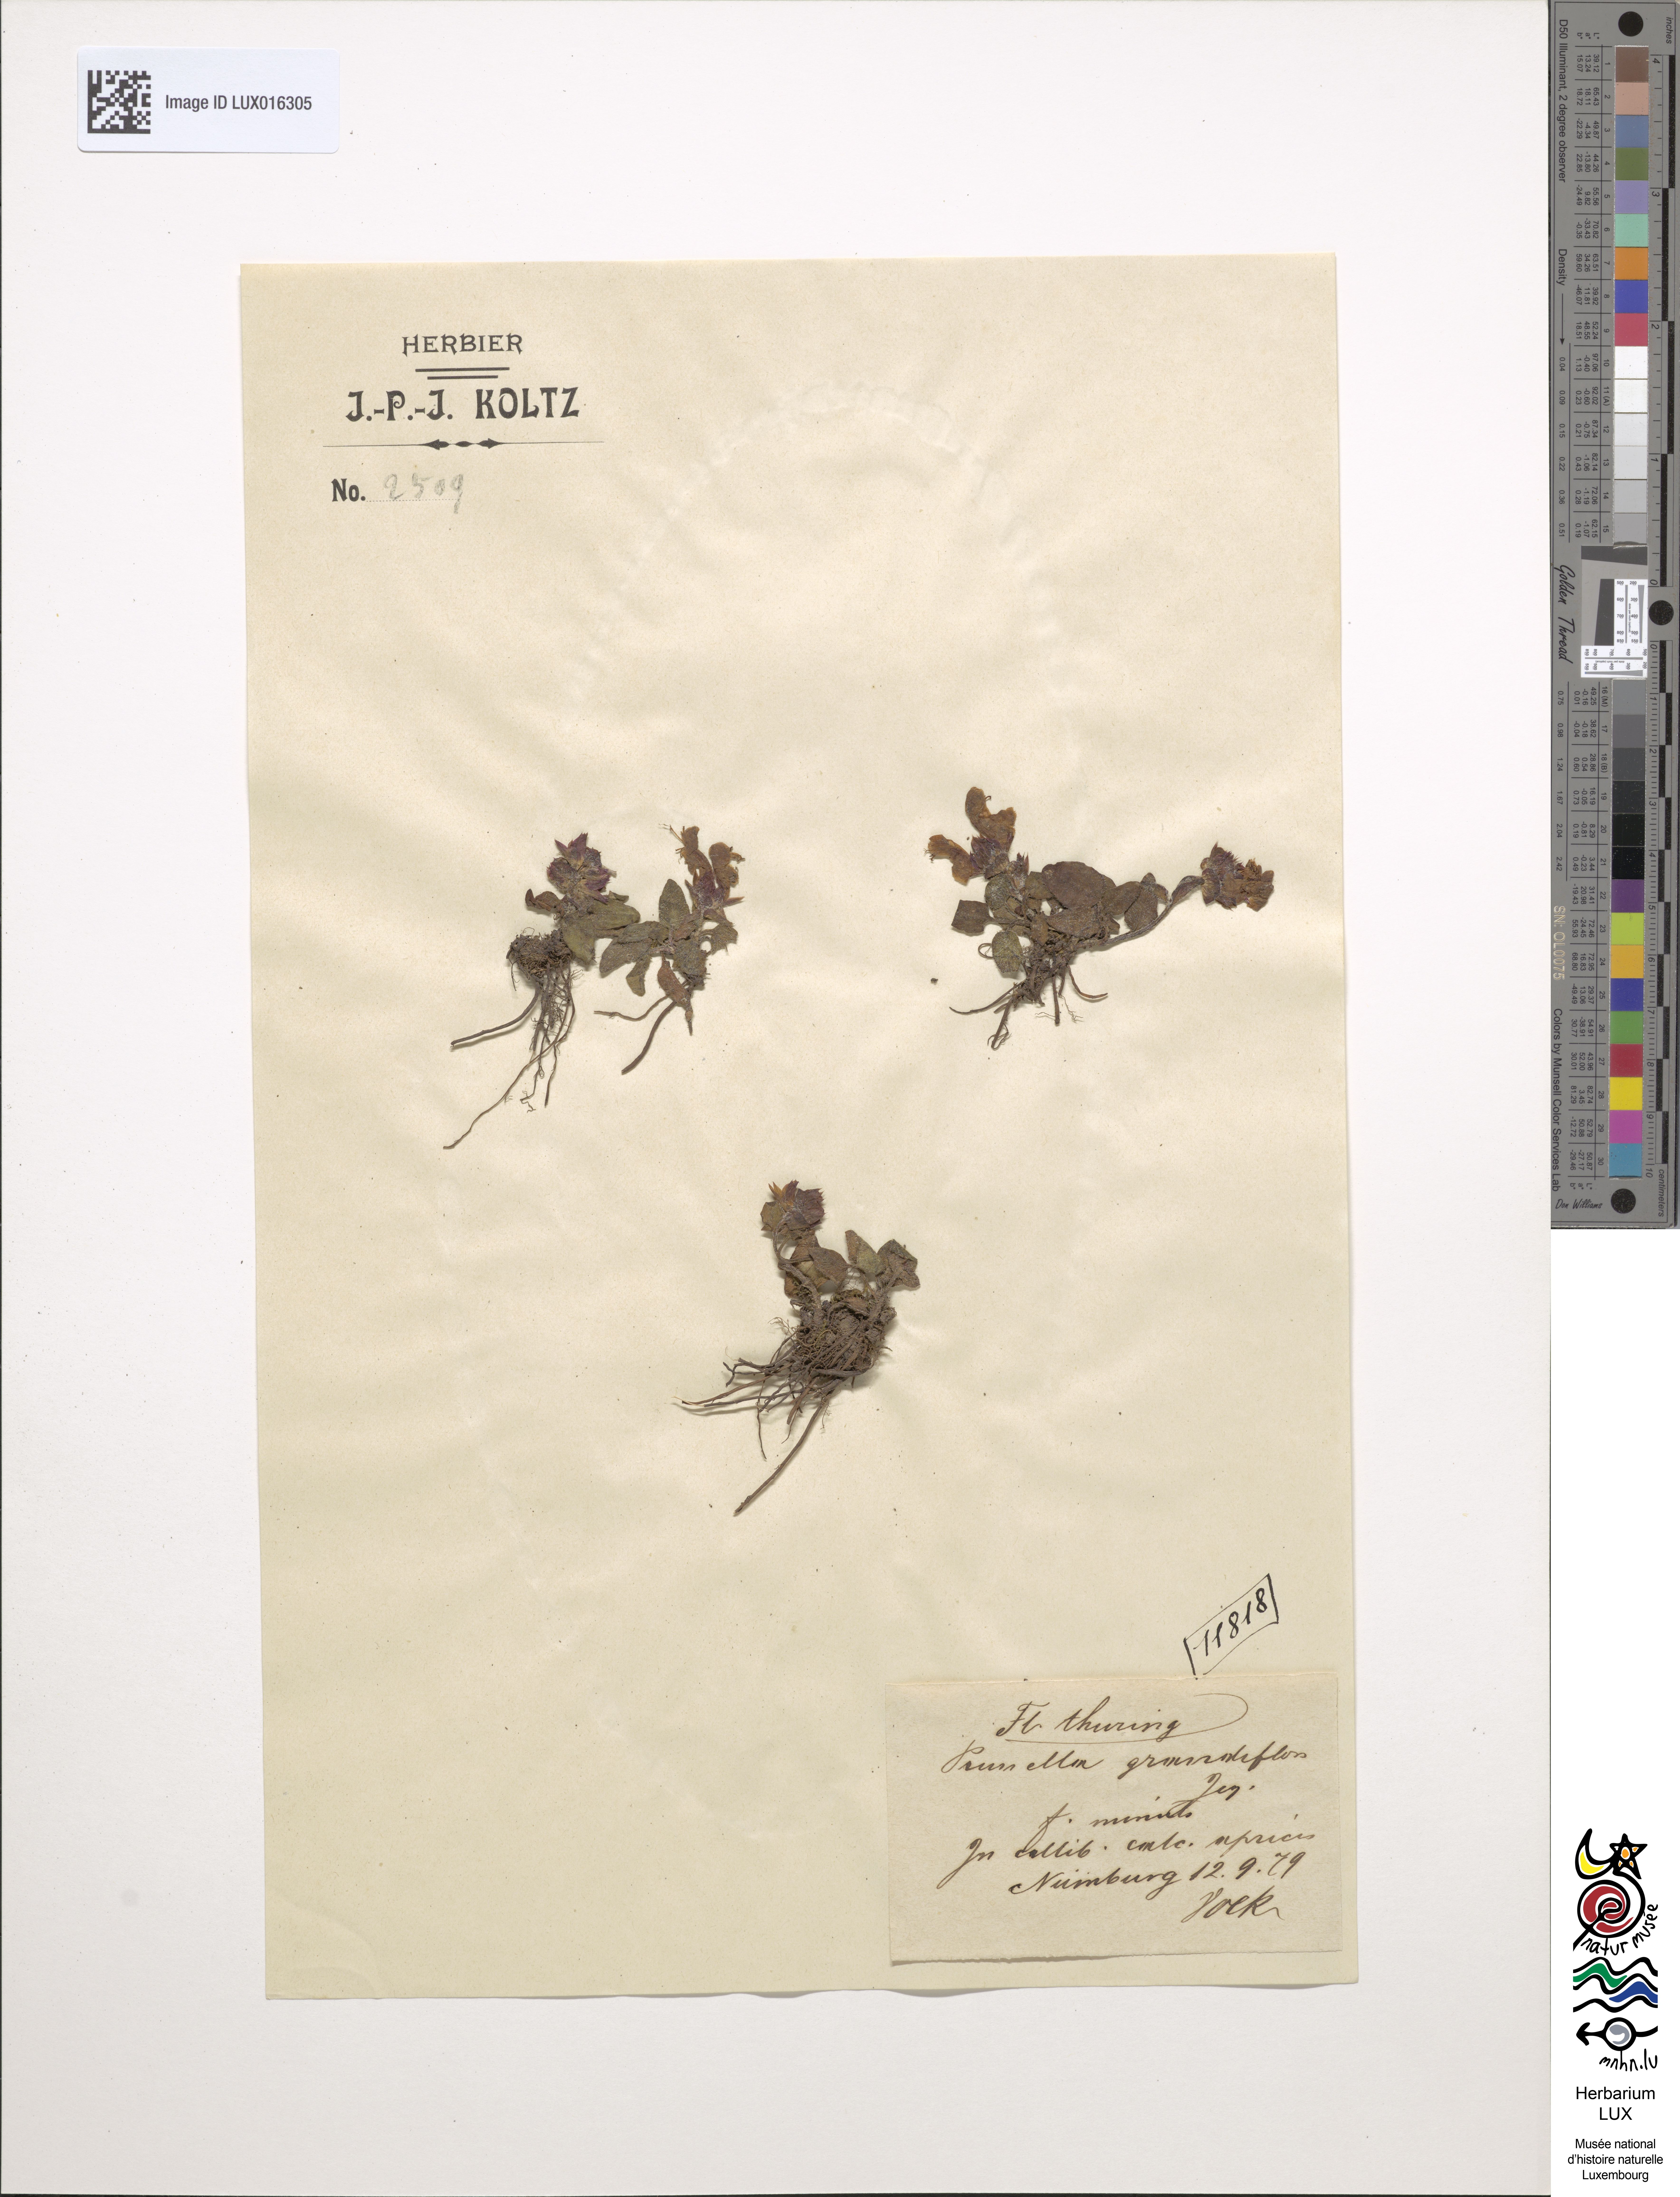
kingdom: Plantae
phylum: Tracheophyta
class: Magnoliopsida
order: Lamiales
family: Lamiaceae
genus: Prunella
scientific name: Prunella grandiflora
